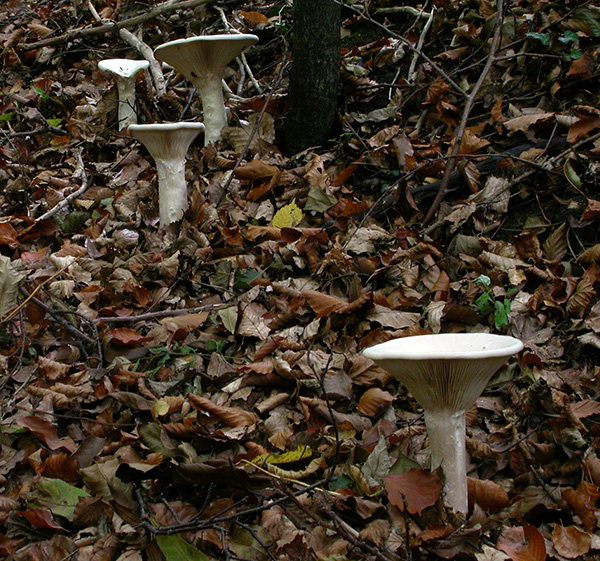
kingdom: Fungi
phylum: Basidiomycota
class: Agaricomycetes
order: Agaricales
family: Tricholomataceae
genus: Infundibulicybe
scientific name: Infundibulicybe geotropa
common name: stor tragthat
